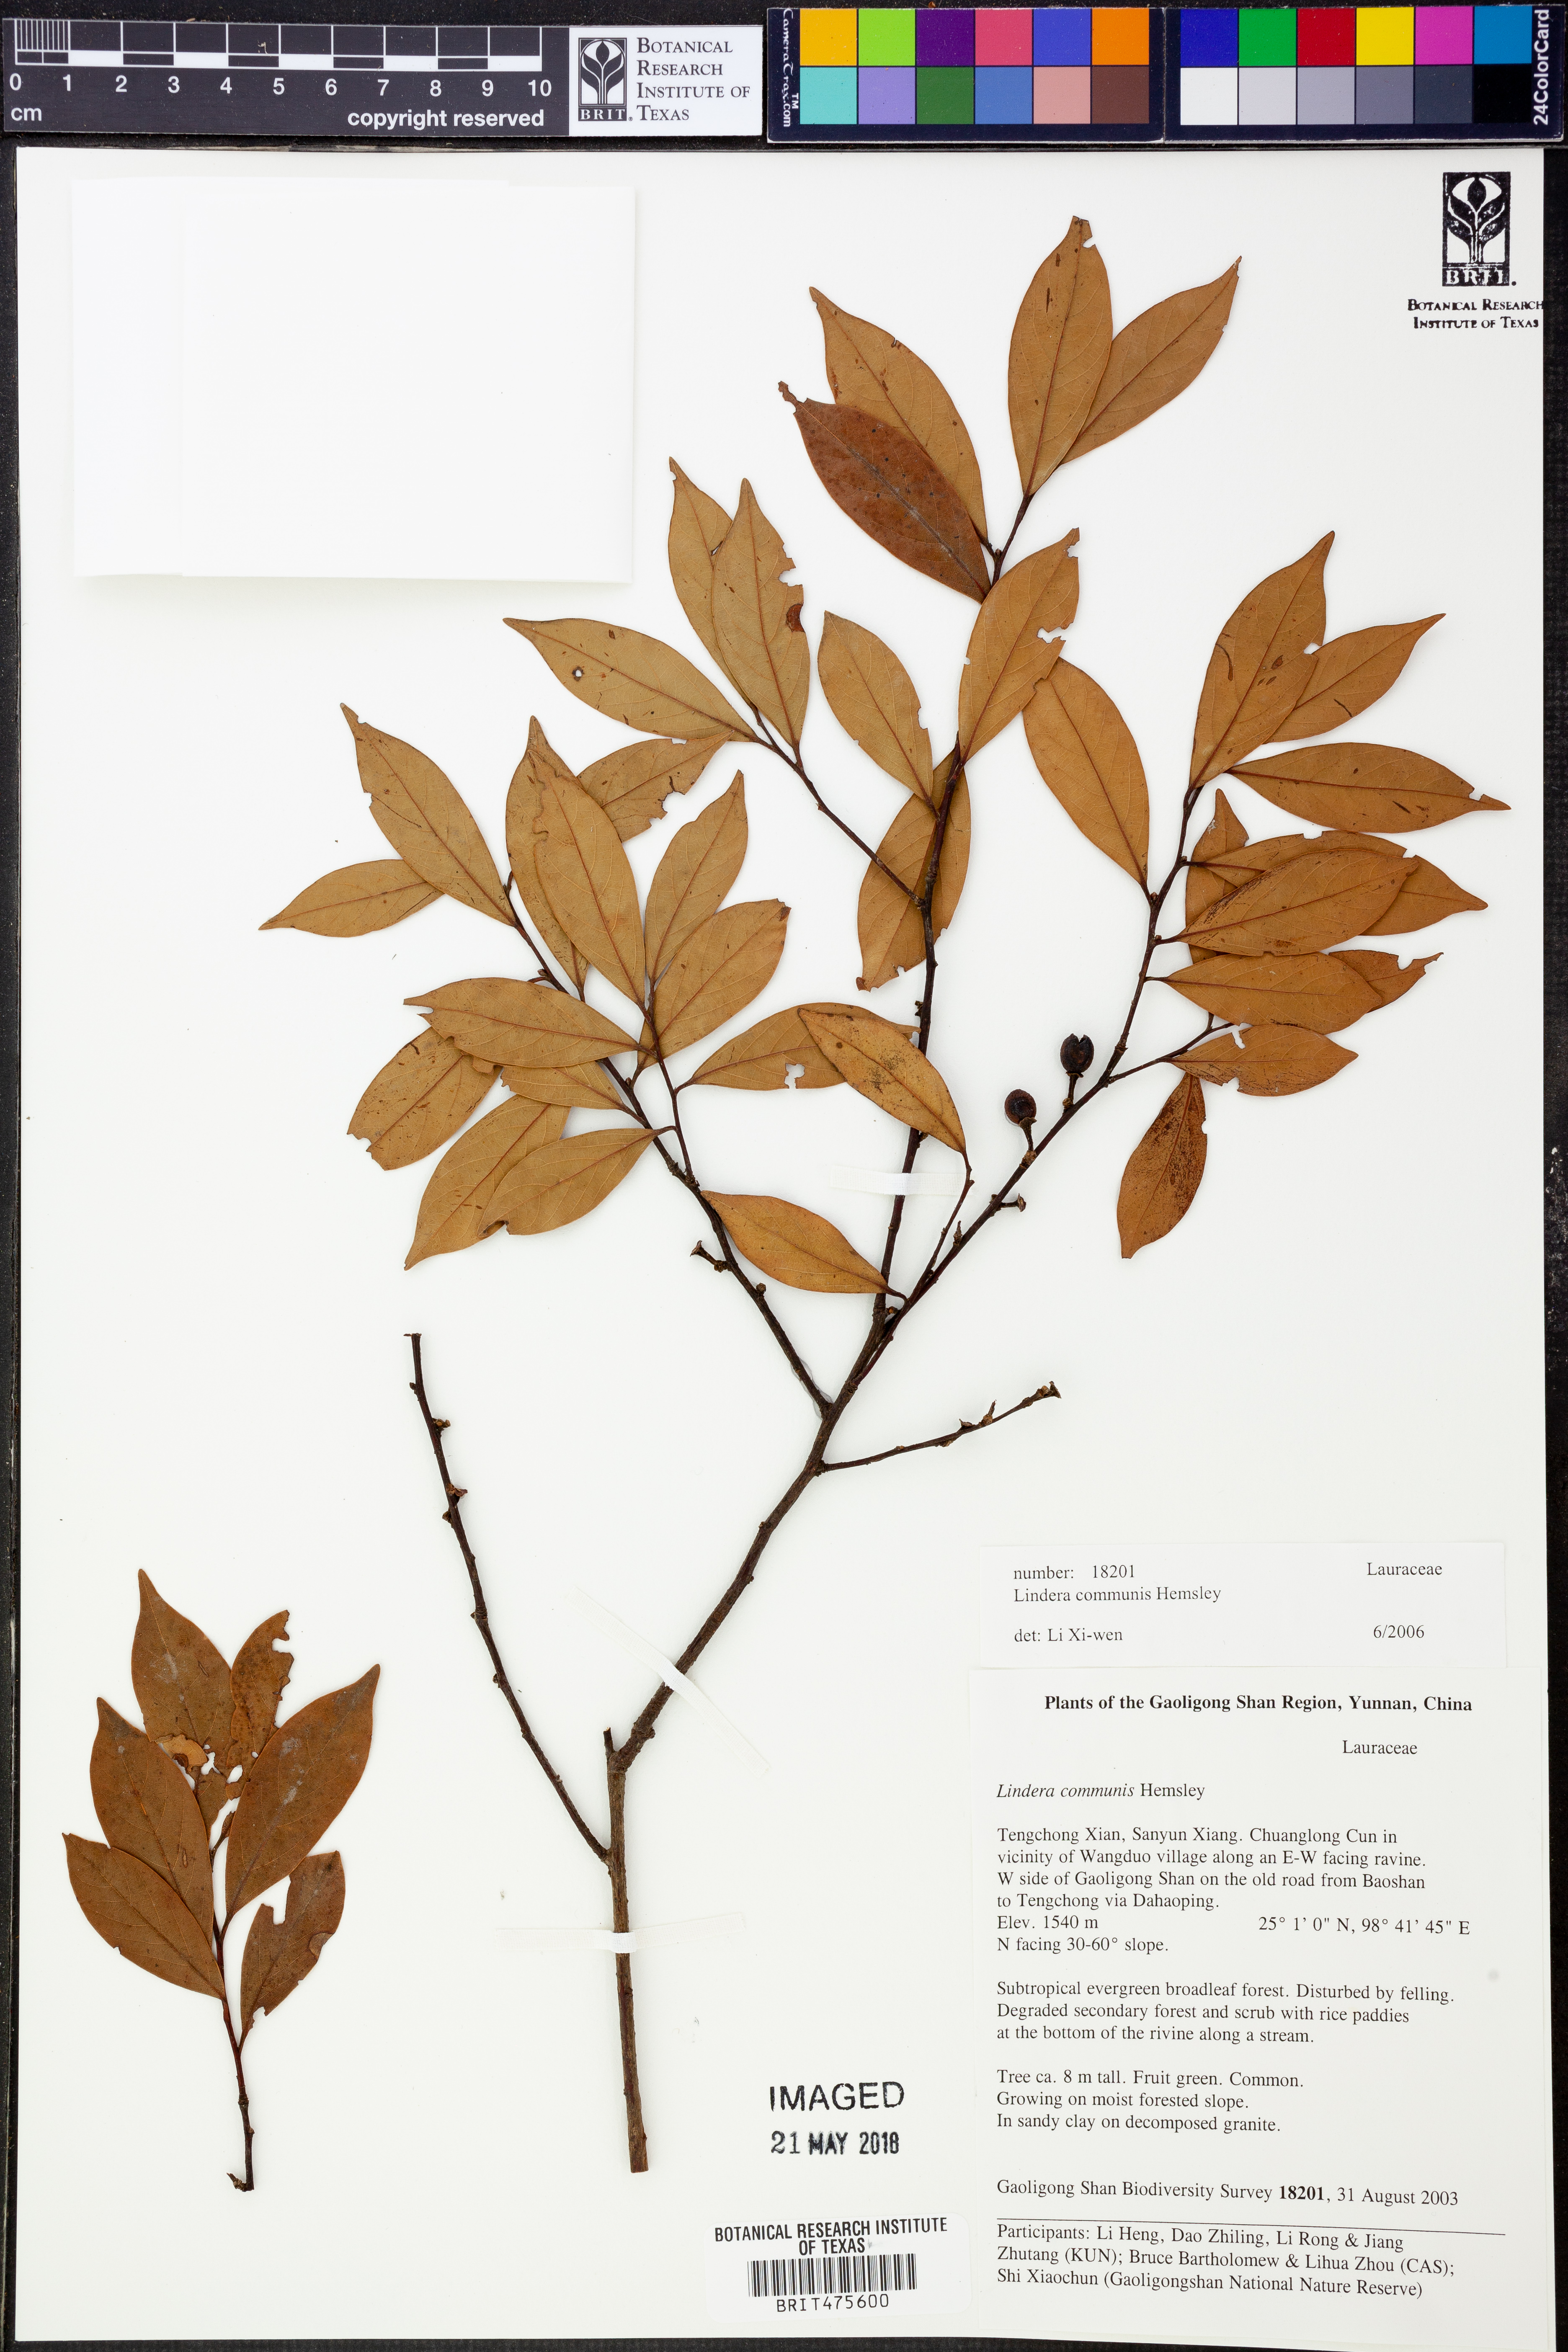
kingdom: Plantae
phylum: Tracheophyta
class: Magnoliopsida
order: Laurales
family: Lauraceae
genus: Lindera
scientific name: Lindera communis
